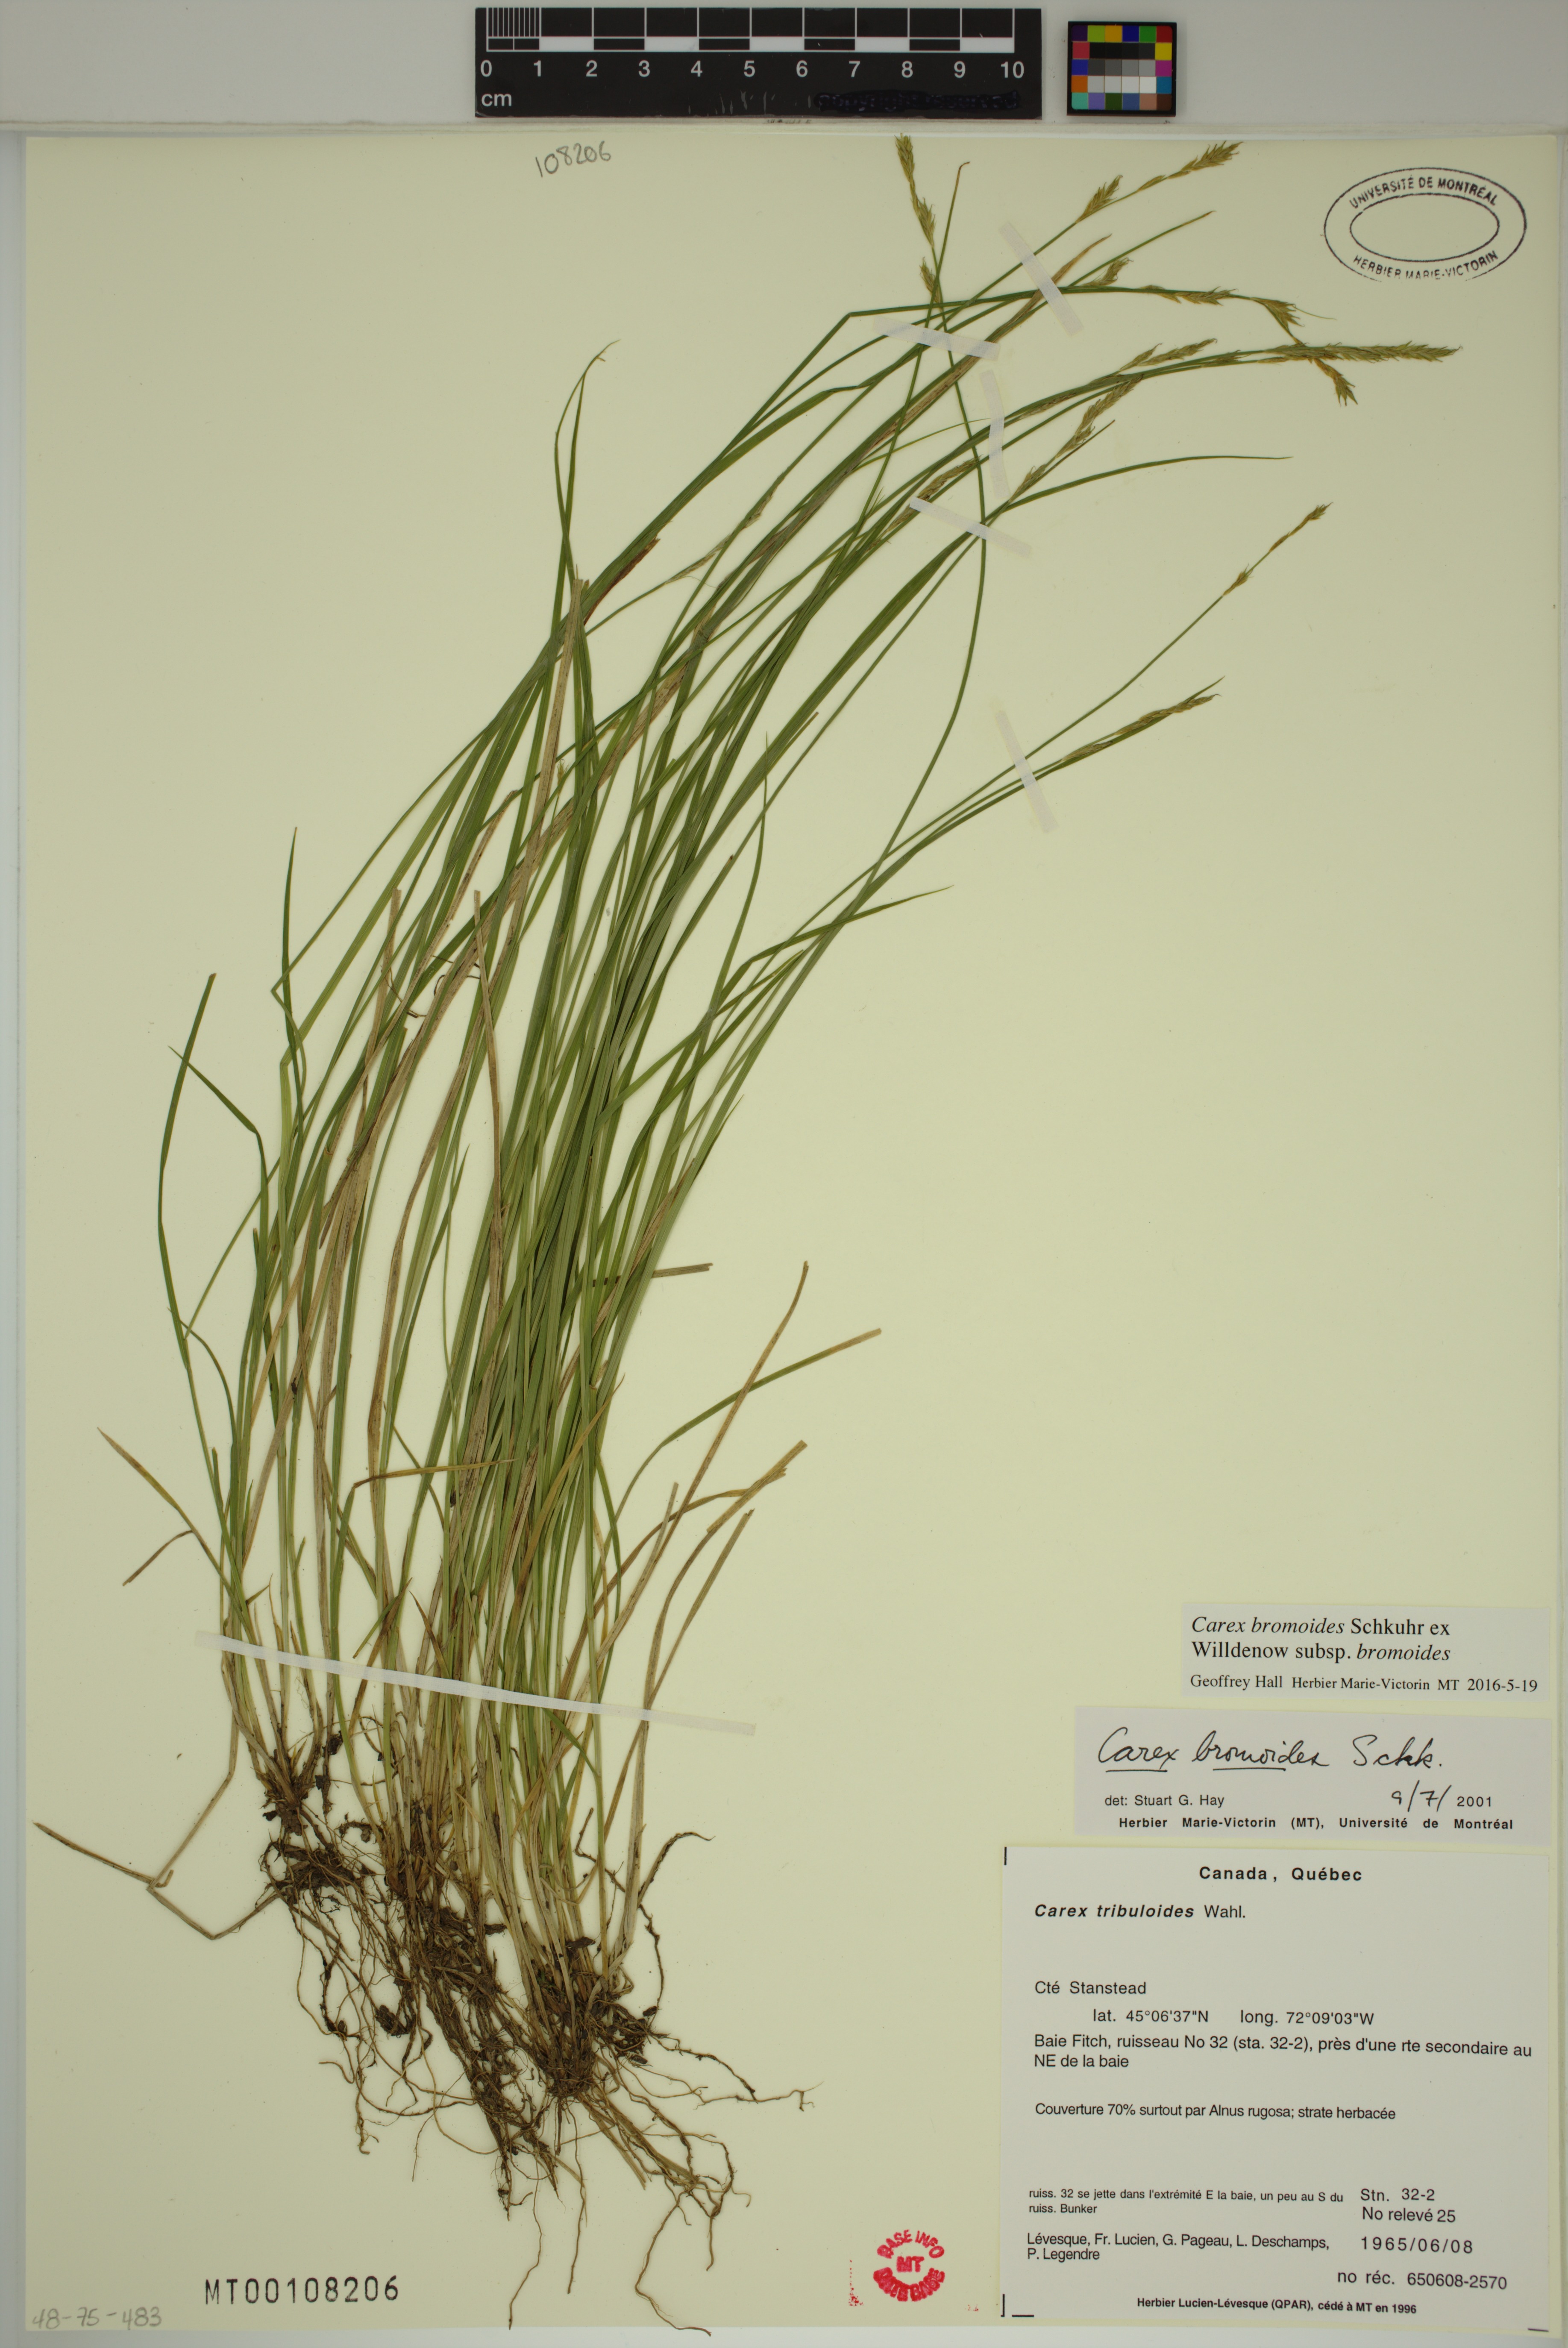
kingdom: Plantae
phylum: Tracheophyta
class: Liliopsida
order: Poales
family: Cyperaceae
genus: Carex
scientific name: Carex bromoides
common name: Brome hummock sedge
